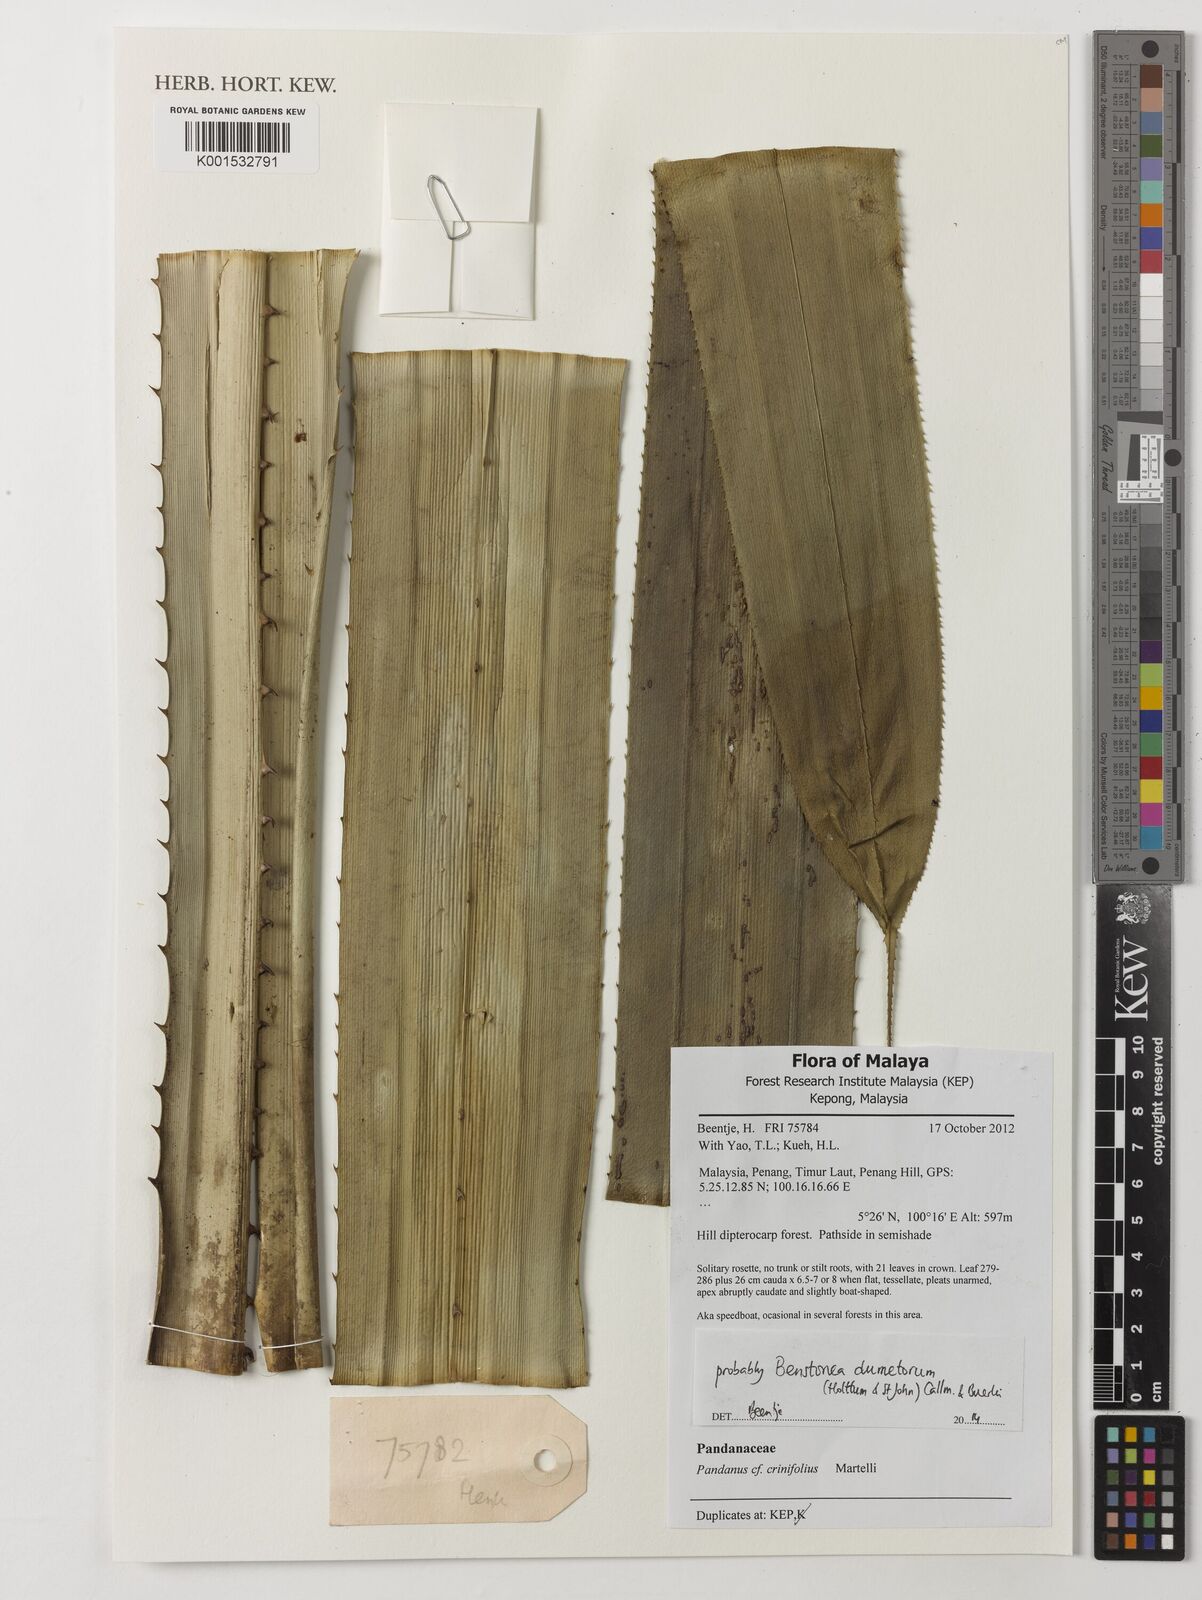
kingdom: Plantae
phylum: Tracheophyta
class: Liliopsida
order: Pandanales
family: Pandanaceae
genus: Benstonea
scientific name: Benstonea dumetorum
